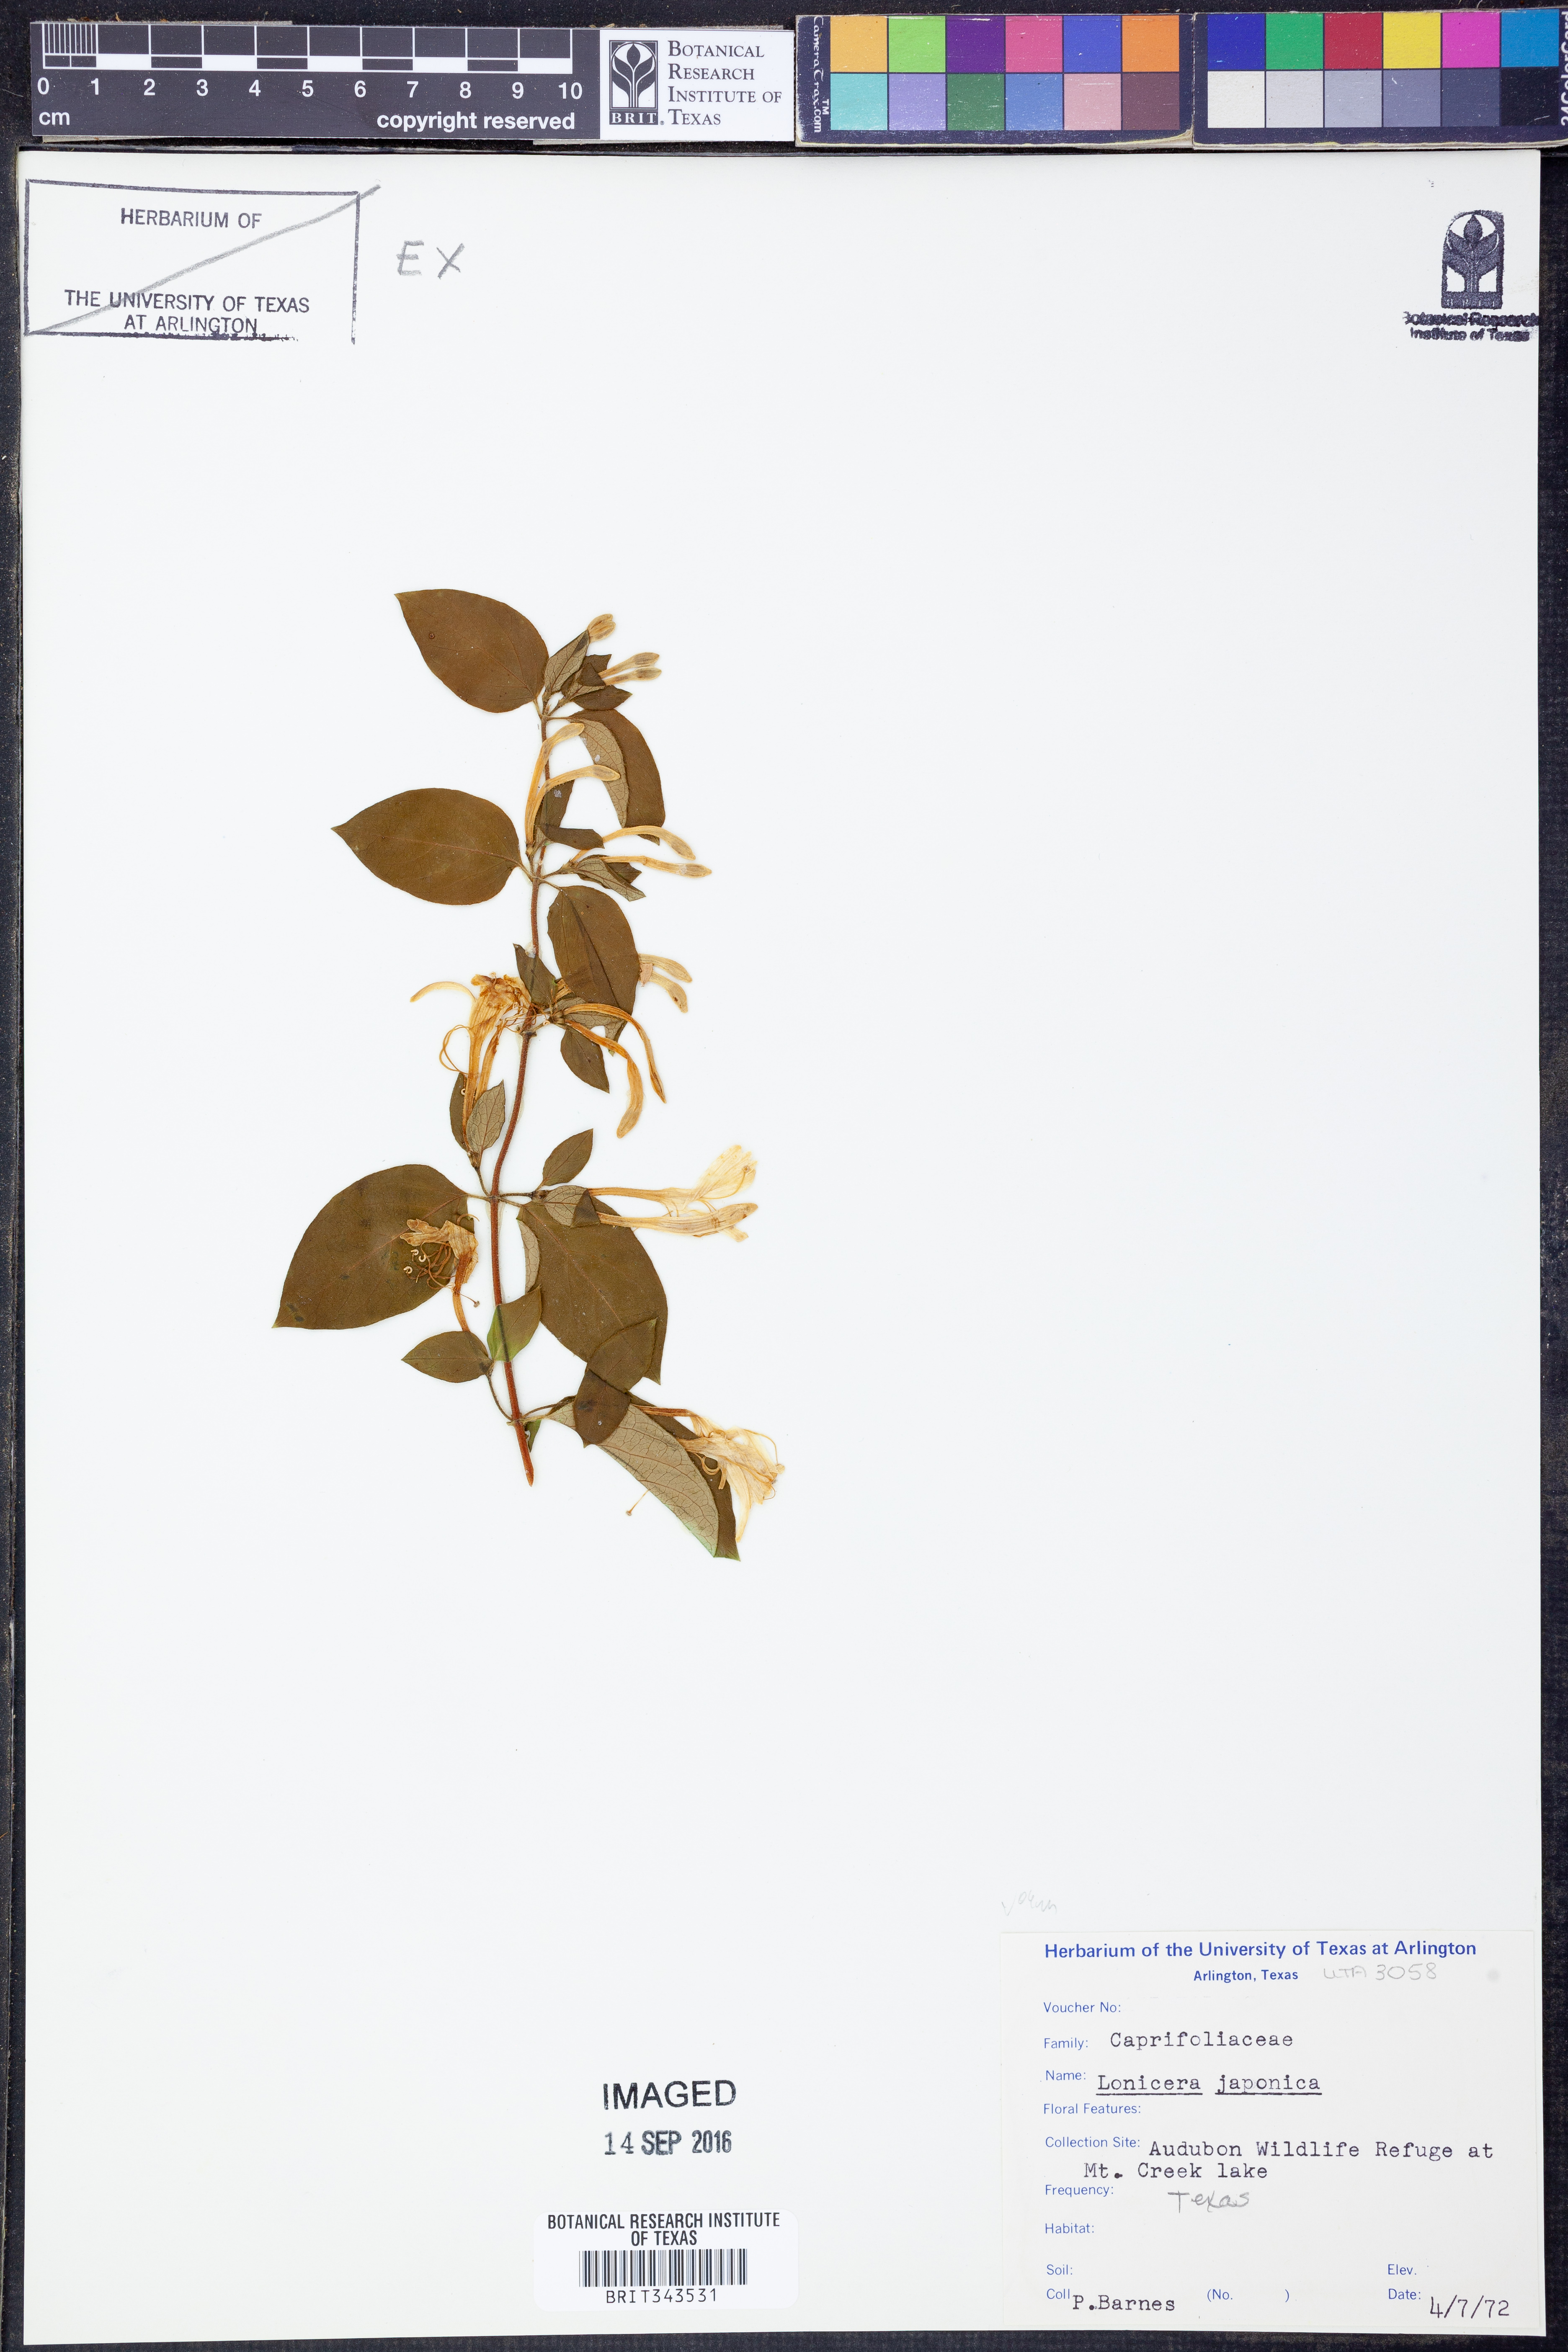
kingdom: Plantae
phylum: Tracheophyta
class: Magnoliopsida
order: Dipsacales
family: Caprifoliaceae
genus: Lonicera
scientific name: Lonicera japonica
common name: Japanese honeysuckle
